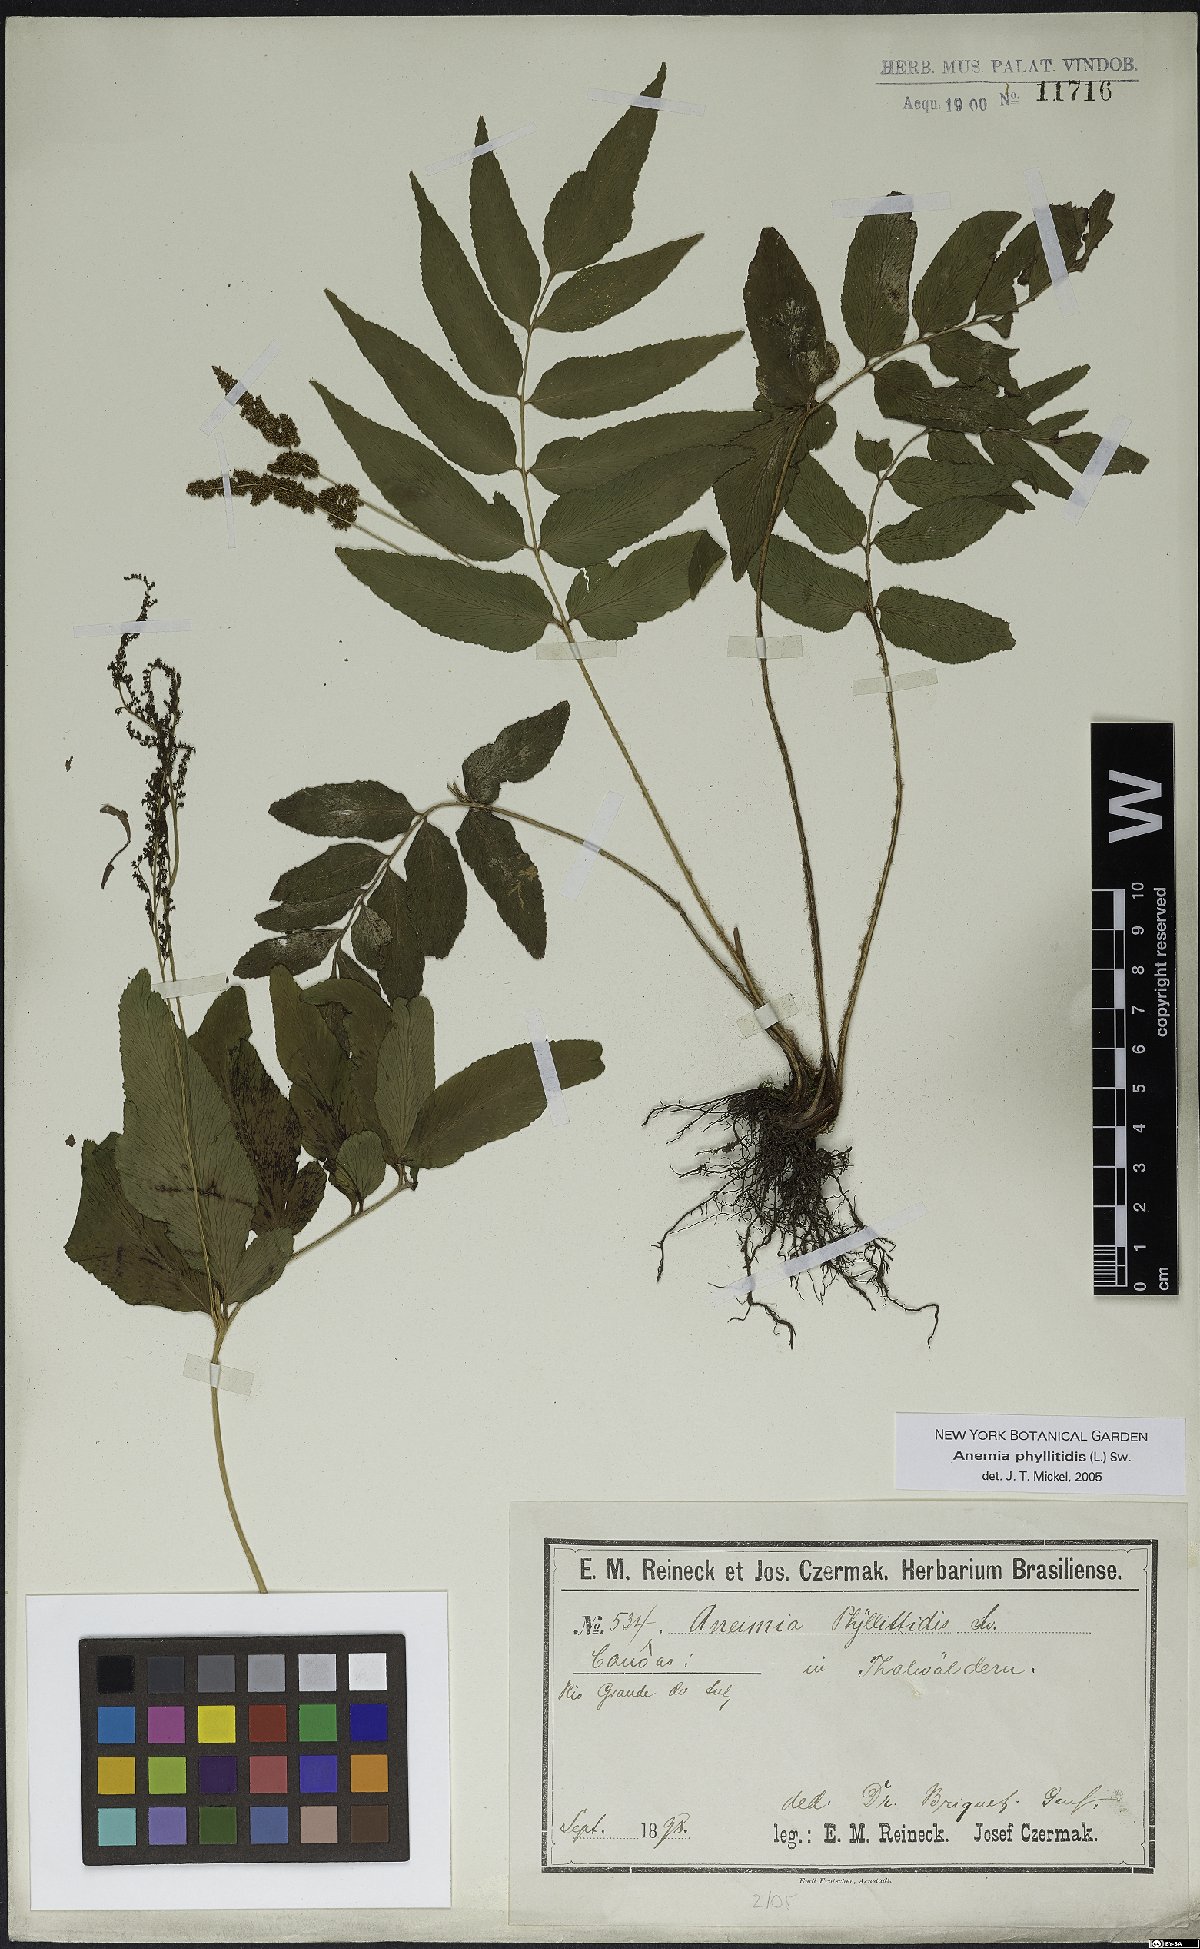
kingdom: Plantae
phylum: Tracheophyta
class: Polypodiopsida
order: Schizaeales
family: Anemiaceae
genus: Anemia
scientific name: Anemia phyllitidis
